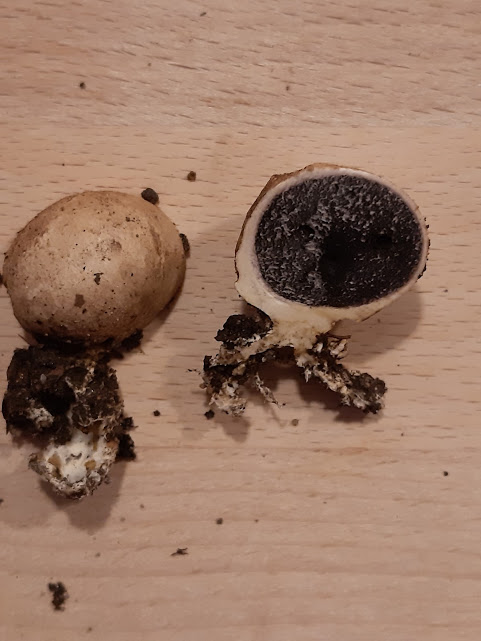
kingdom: Fungi
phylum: Basidiomycota
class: Agaricomycetes
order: Boletales
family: Sclerodermataceae
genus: Scleroderma
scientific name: Scleroderma bovista
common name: bovist-bruskbold
